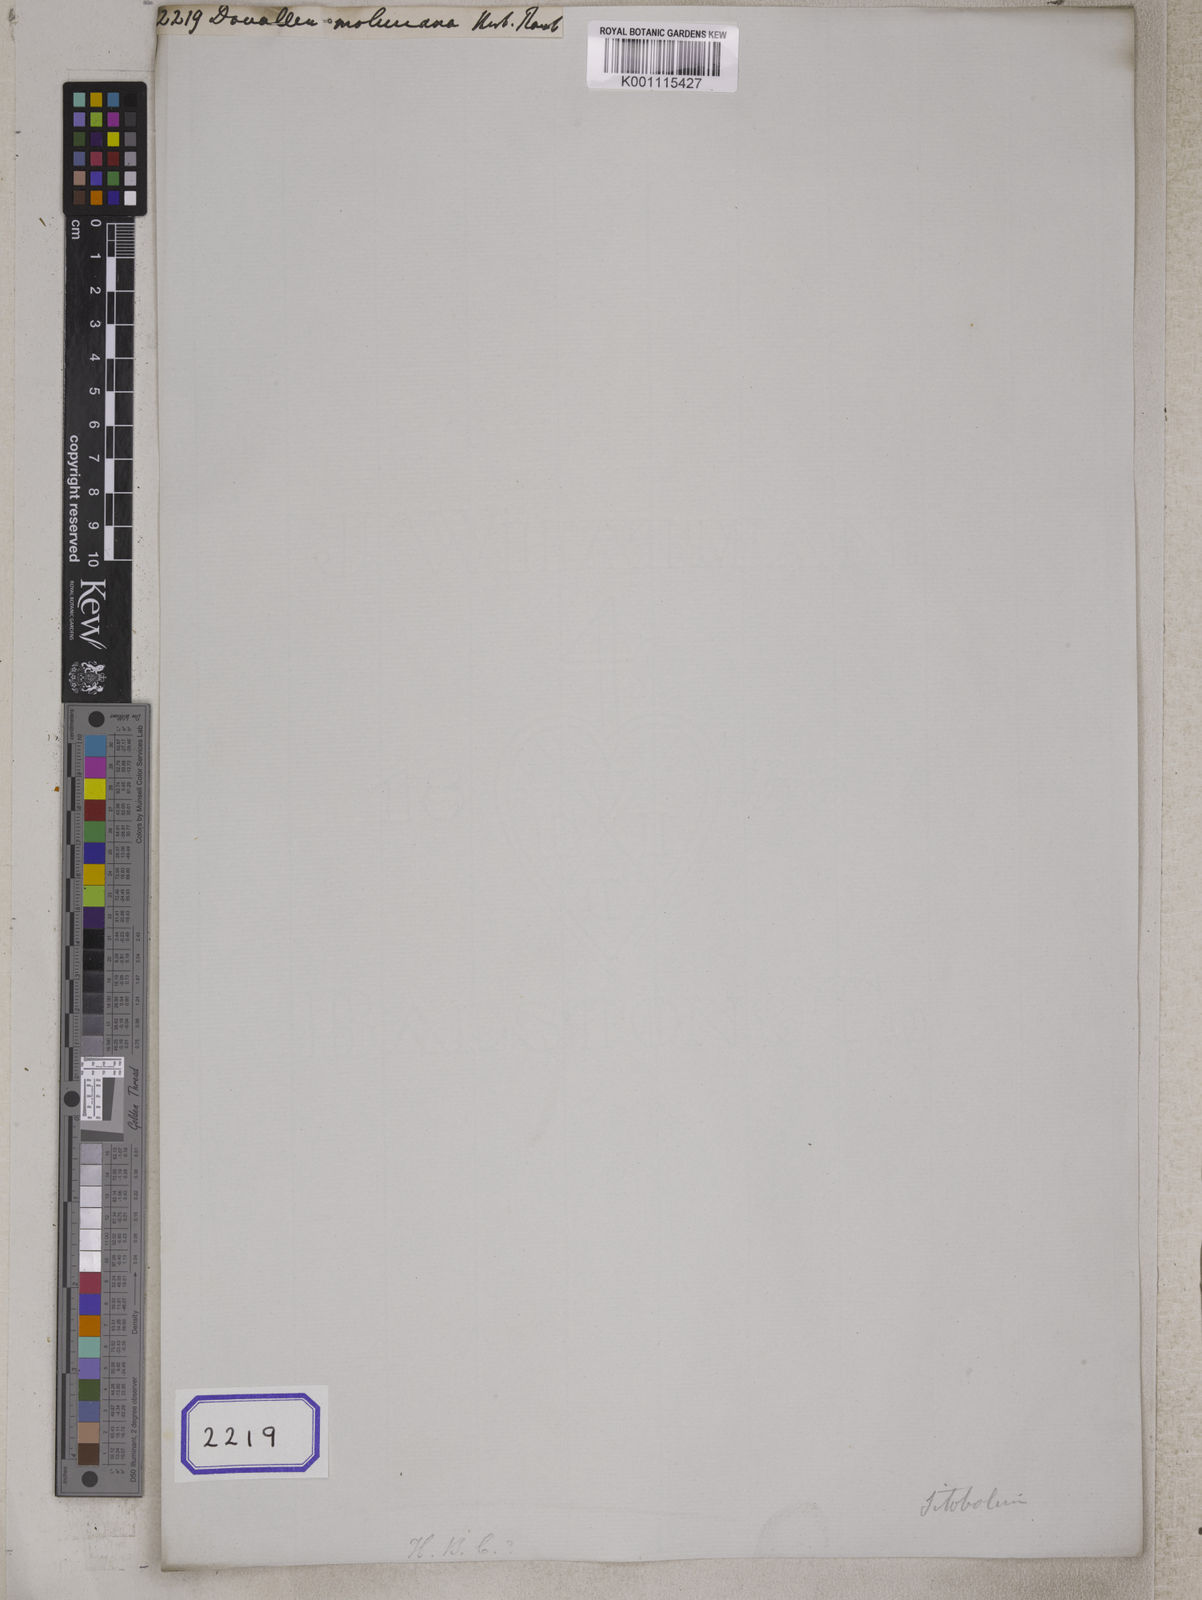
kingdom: Plantae
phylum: Tracheophyta
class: Polypodiopsida
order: Polypodiales
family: Davalliaceae
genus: Davallia
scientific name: Davallia
